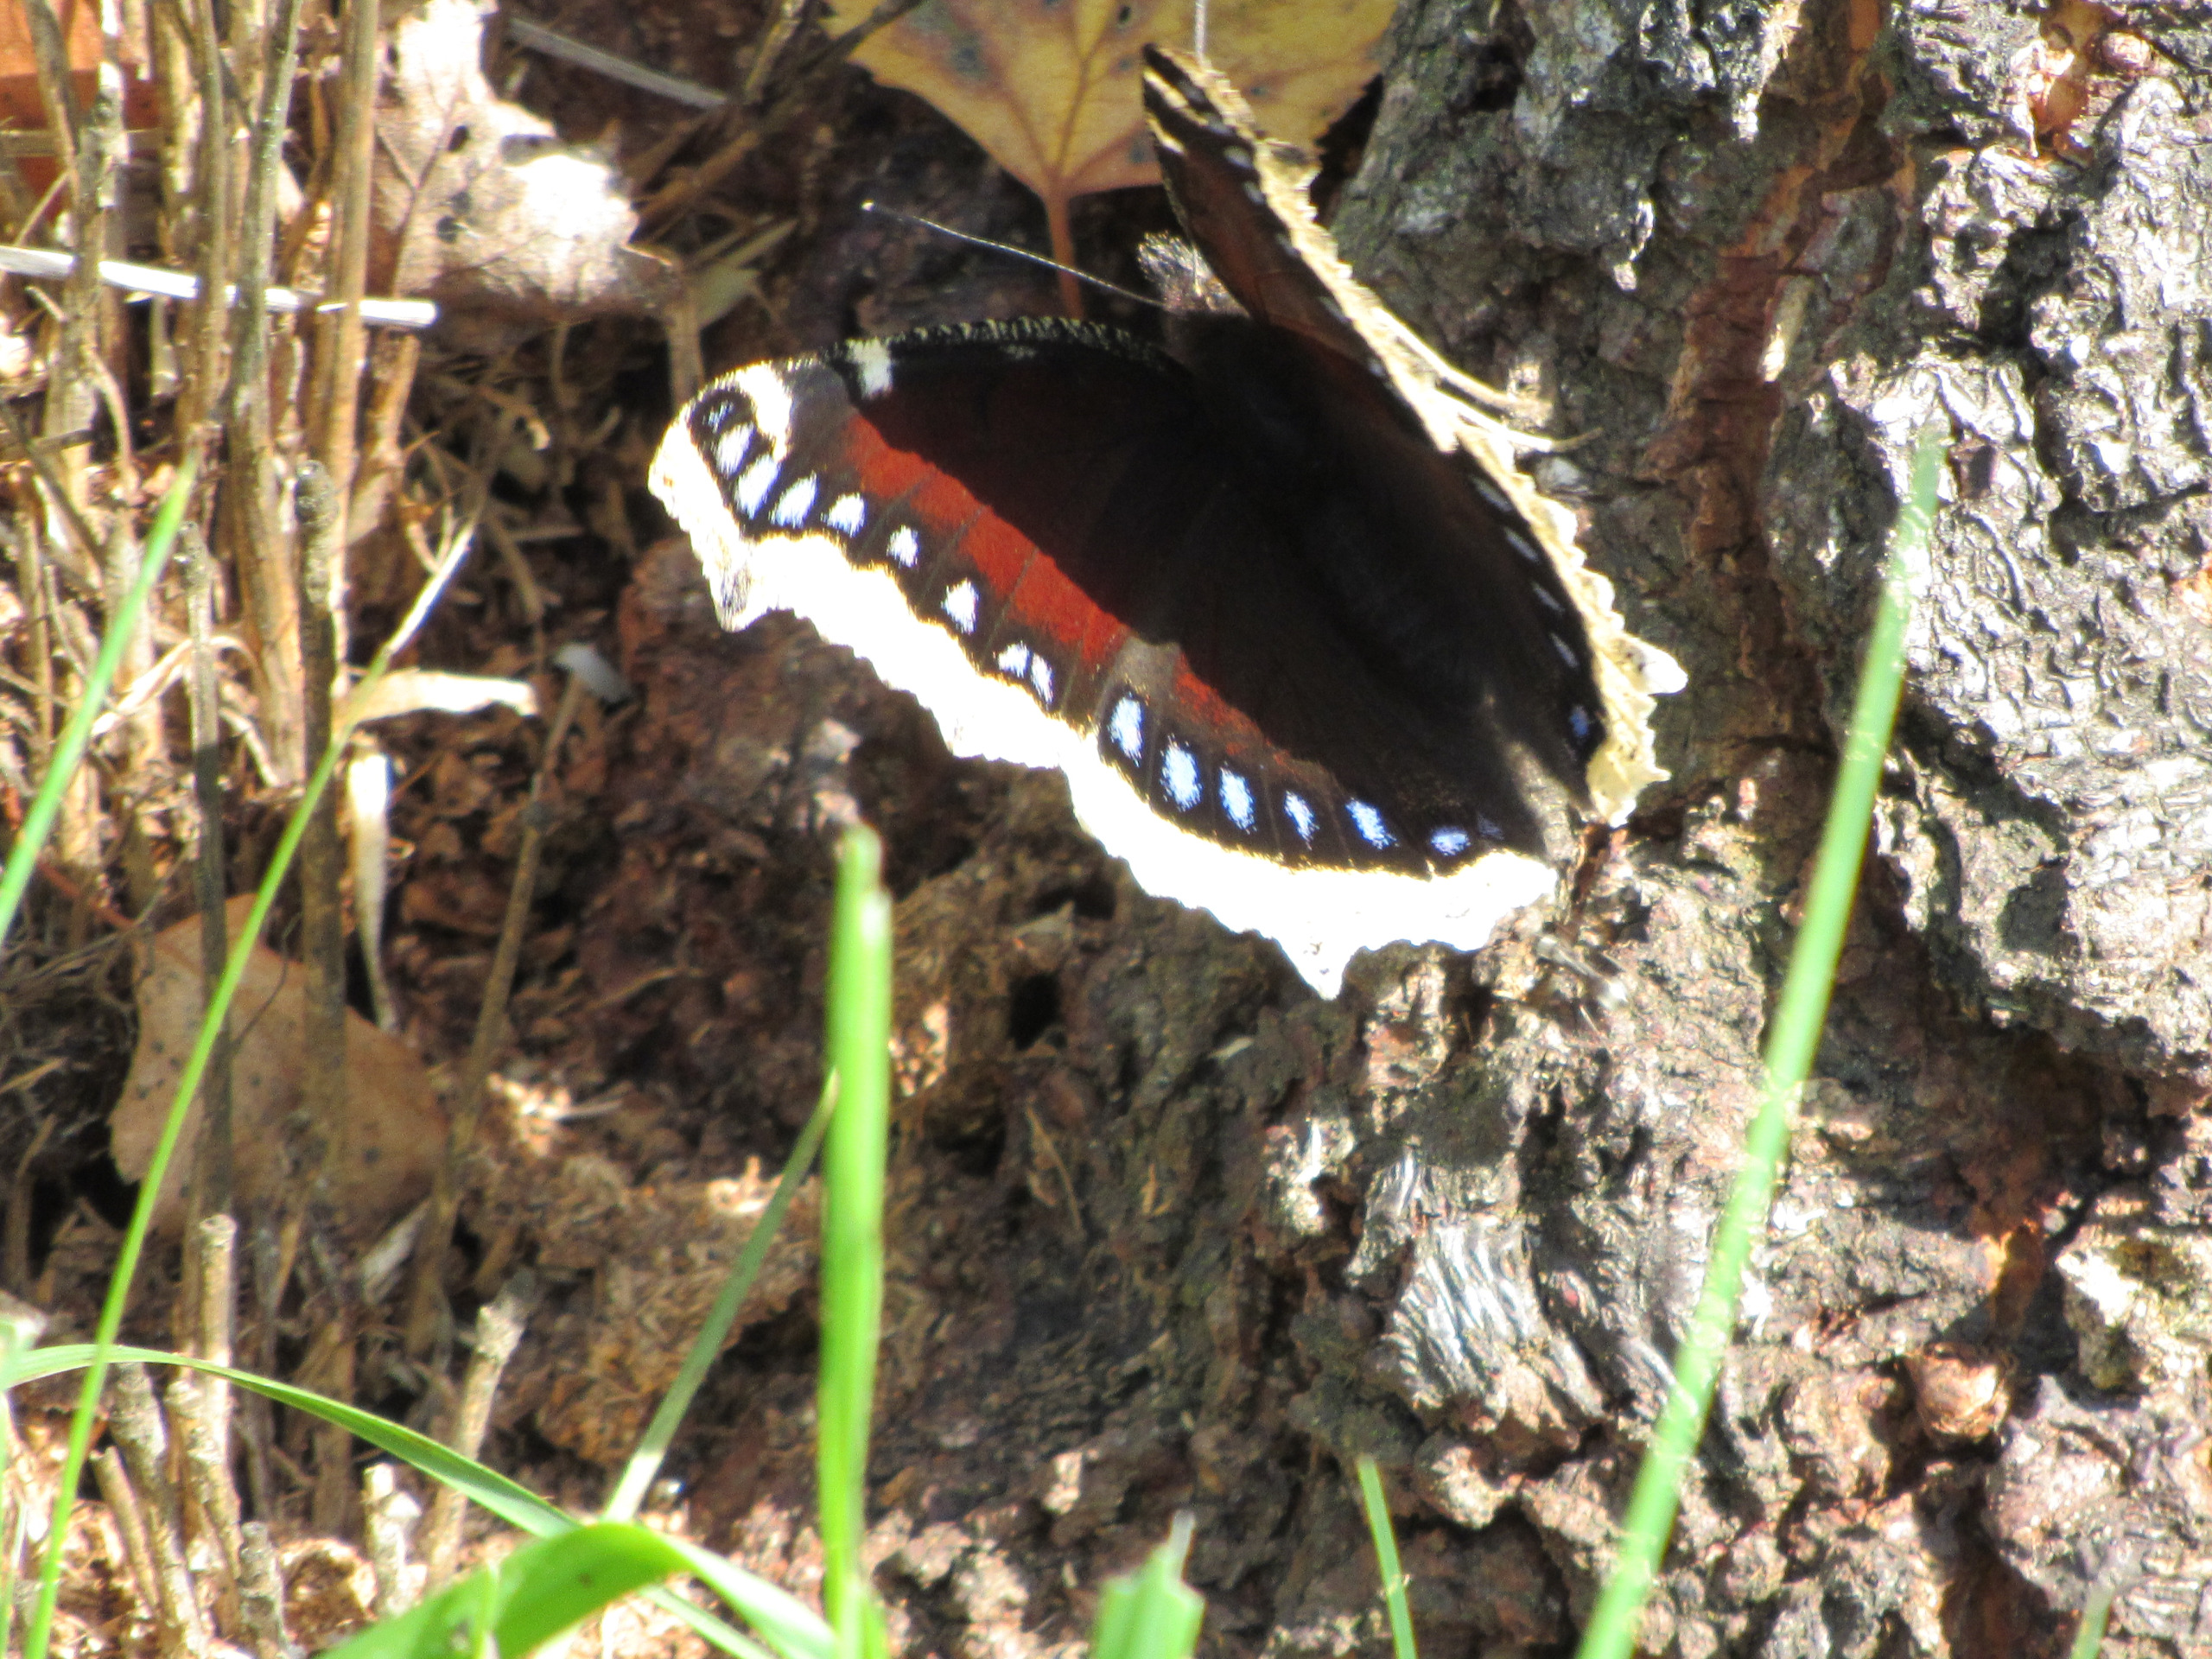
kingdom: Animalia
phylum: Arthropoda
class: Insecta
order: Lepidoptera
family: Nymphalidae
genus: Nymphalis
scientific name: Nymphalis antiopa
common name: Sørgekåbe
